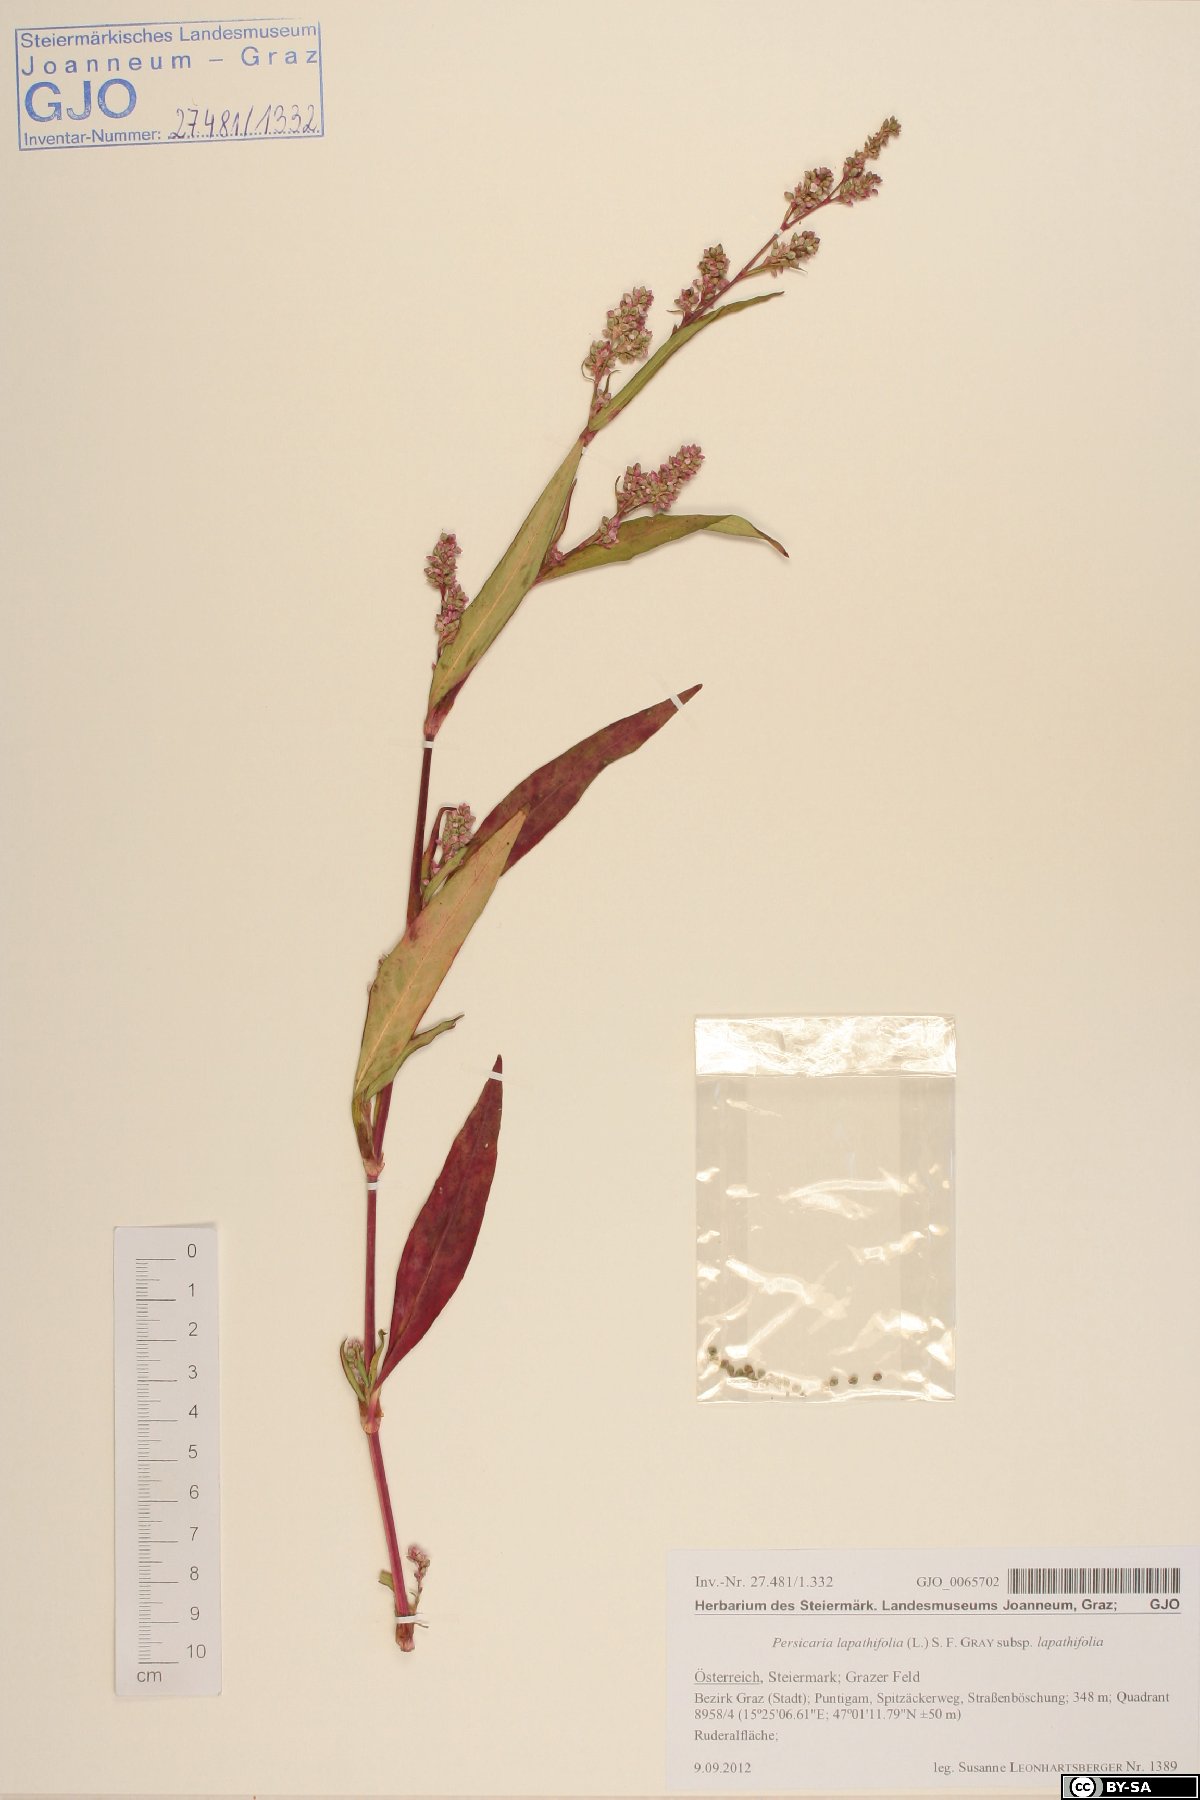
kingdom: Plantae
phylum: Tracheophyta
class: Magnoliopsida
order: Caryophyllales
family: Polygonaceae
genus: Persicaria
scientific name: Persicaria lapathifolia
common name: Curlytop knotweed
